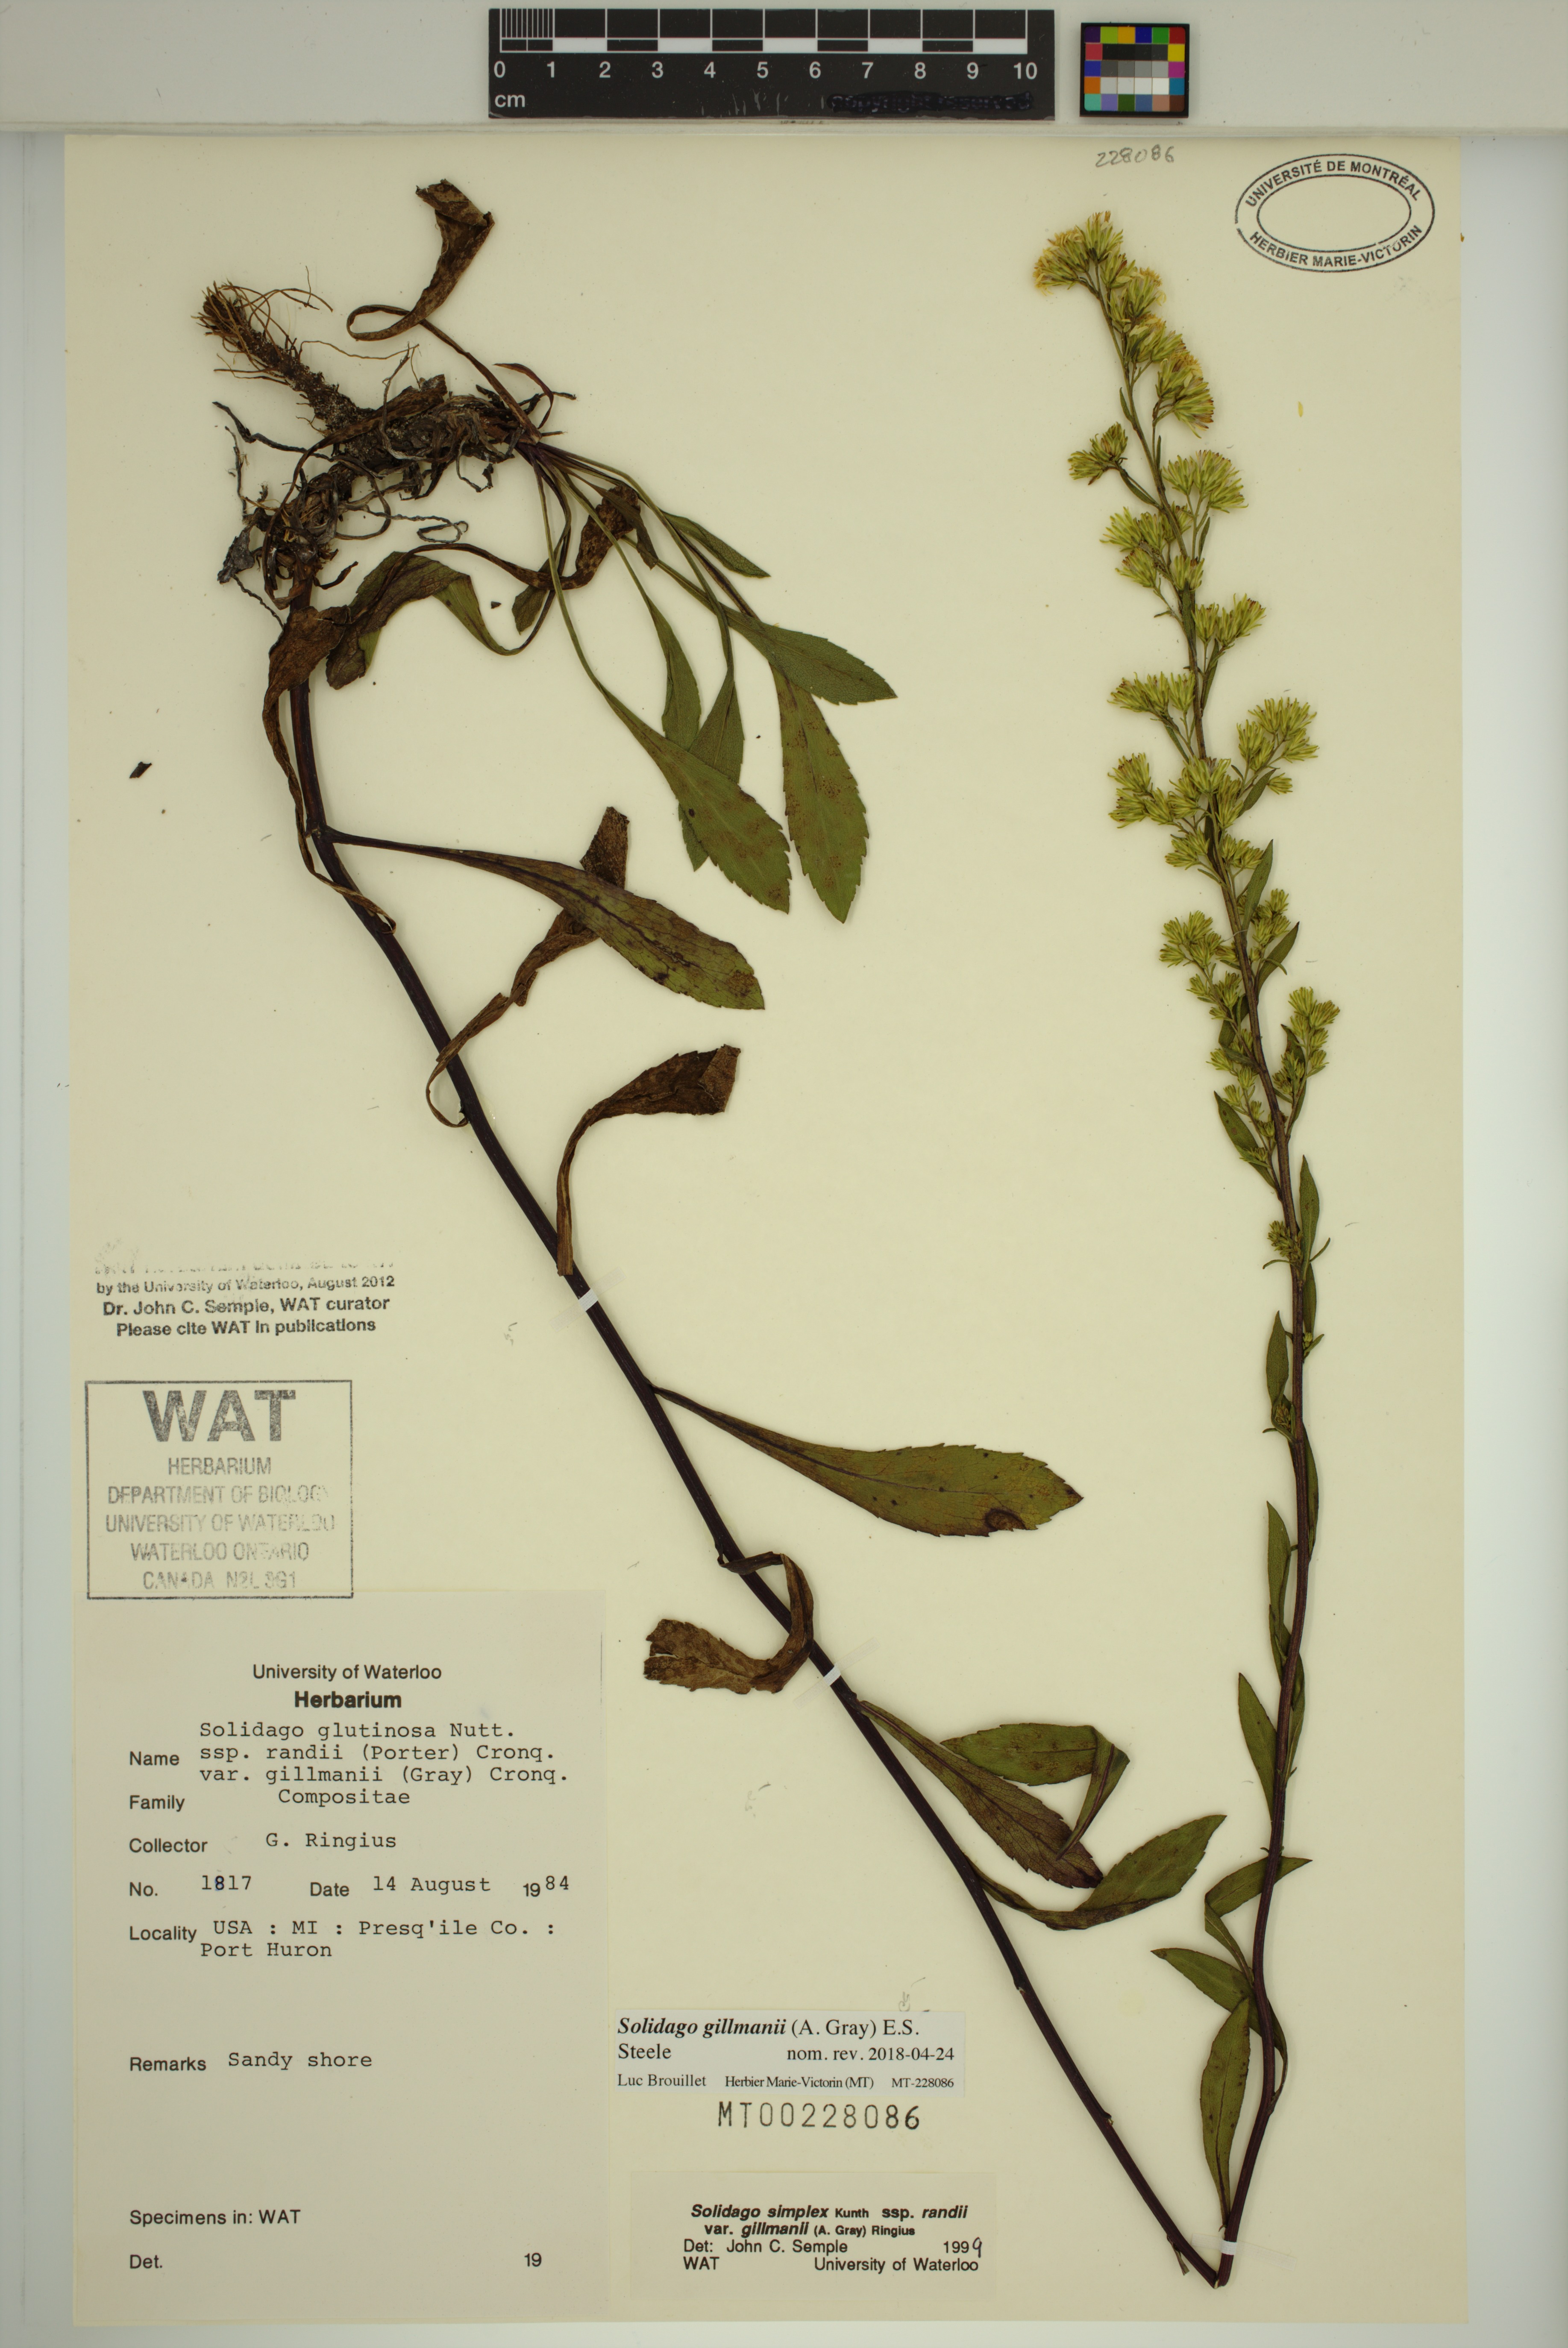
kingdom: Plantae
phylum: Tracheophyta
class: Magnoliopsida
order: Asterales
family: Asteraceae
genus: Solidago
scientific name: Solidago gillmanii
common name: Gillman's goldenrod
